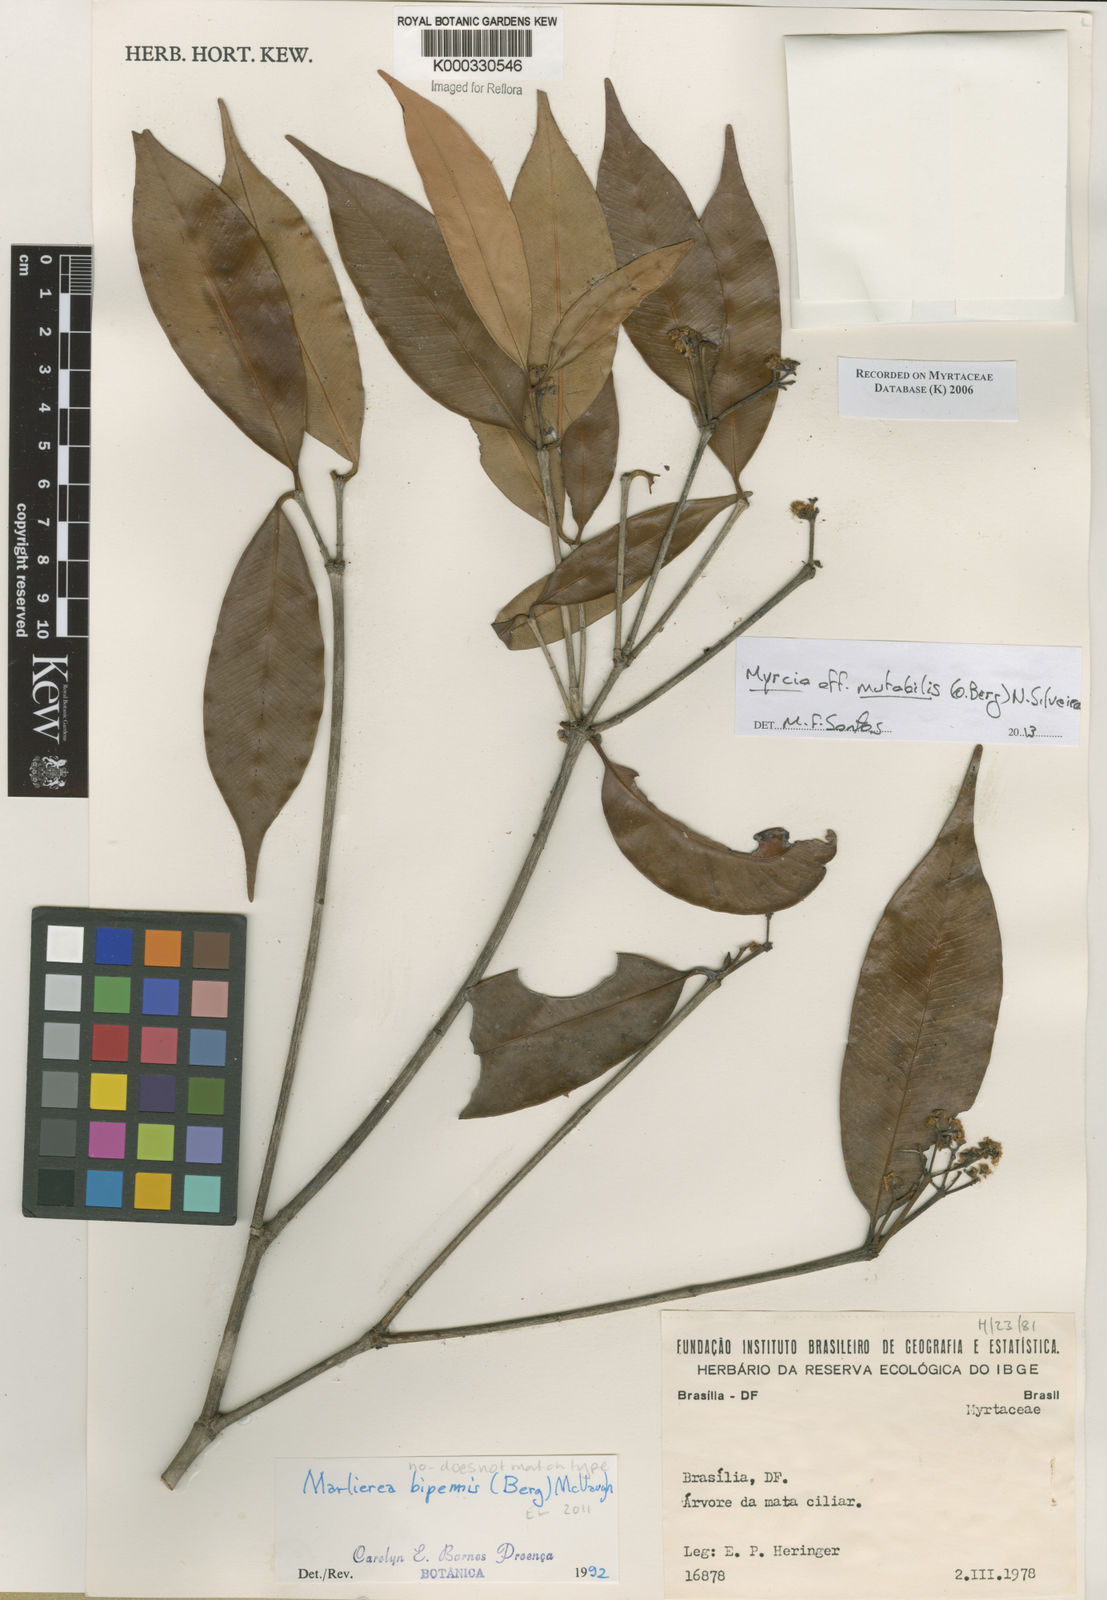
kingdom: Plantae
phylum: Tracheophyta
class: Magnoliopsida
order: Myrtales
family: Myrtaceae
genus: Myrcia
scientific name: Myrcia bipennis
